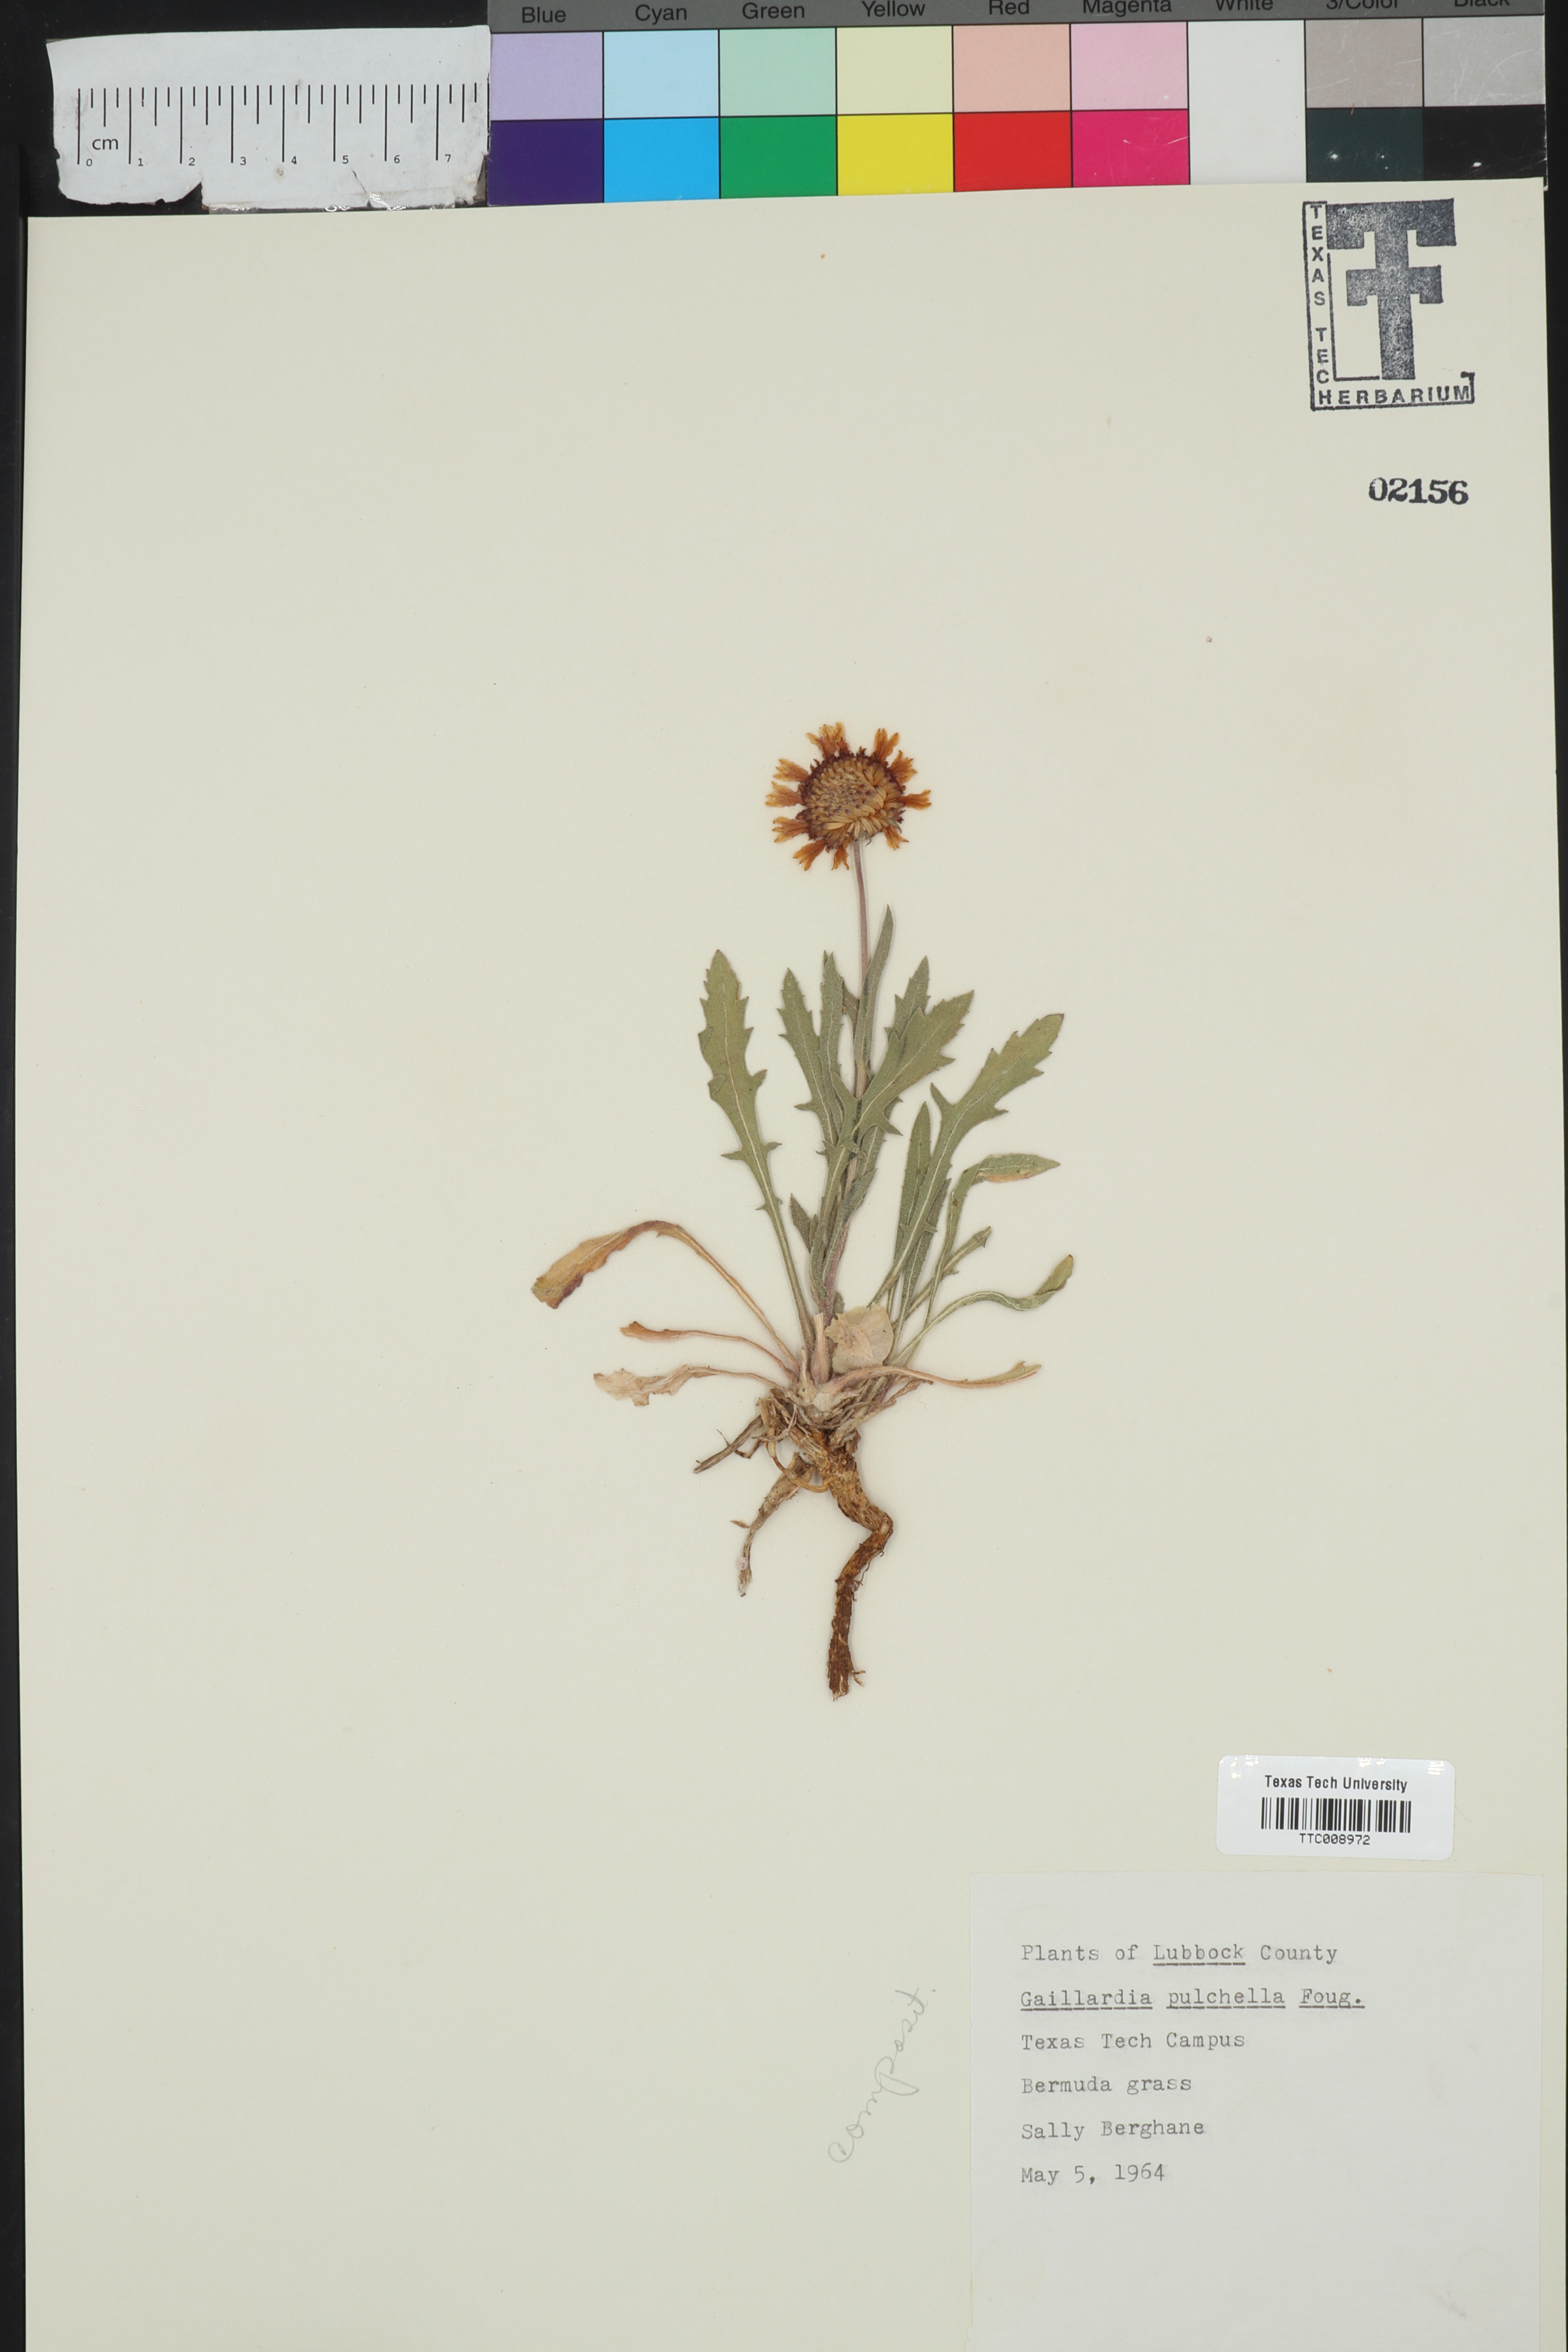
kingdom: Plantae
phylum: Tracheophyta
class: Magnoliopsida
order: Asterales
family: Asteraceae
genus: Gaillardia
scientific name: Gaillardia pulchella
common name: Firewheel
